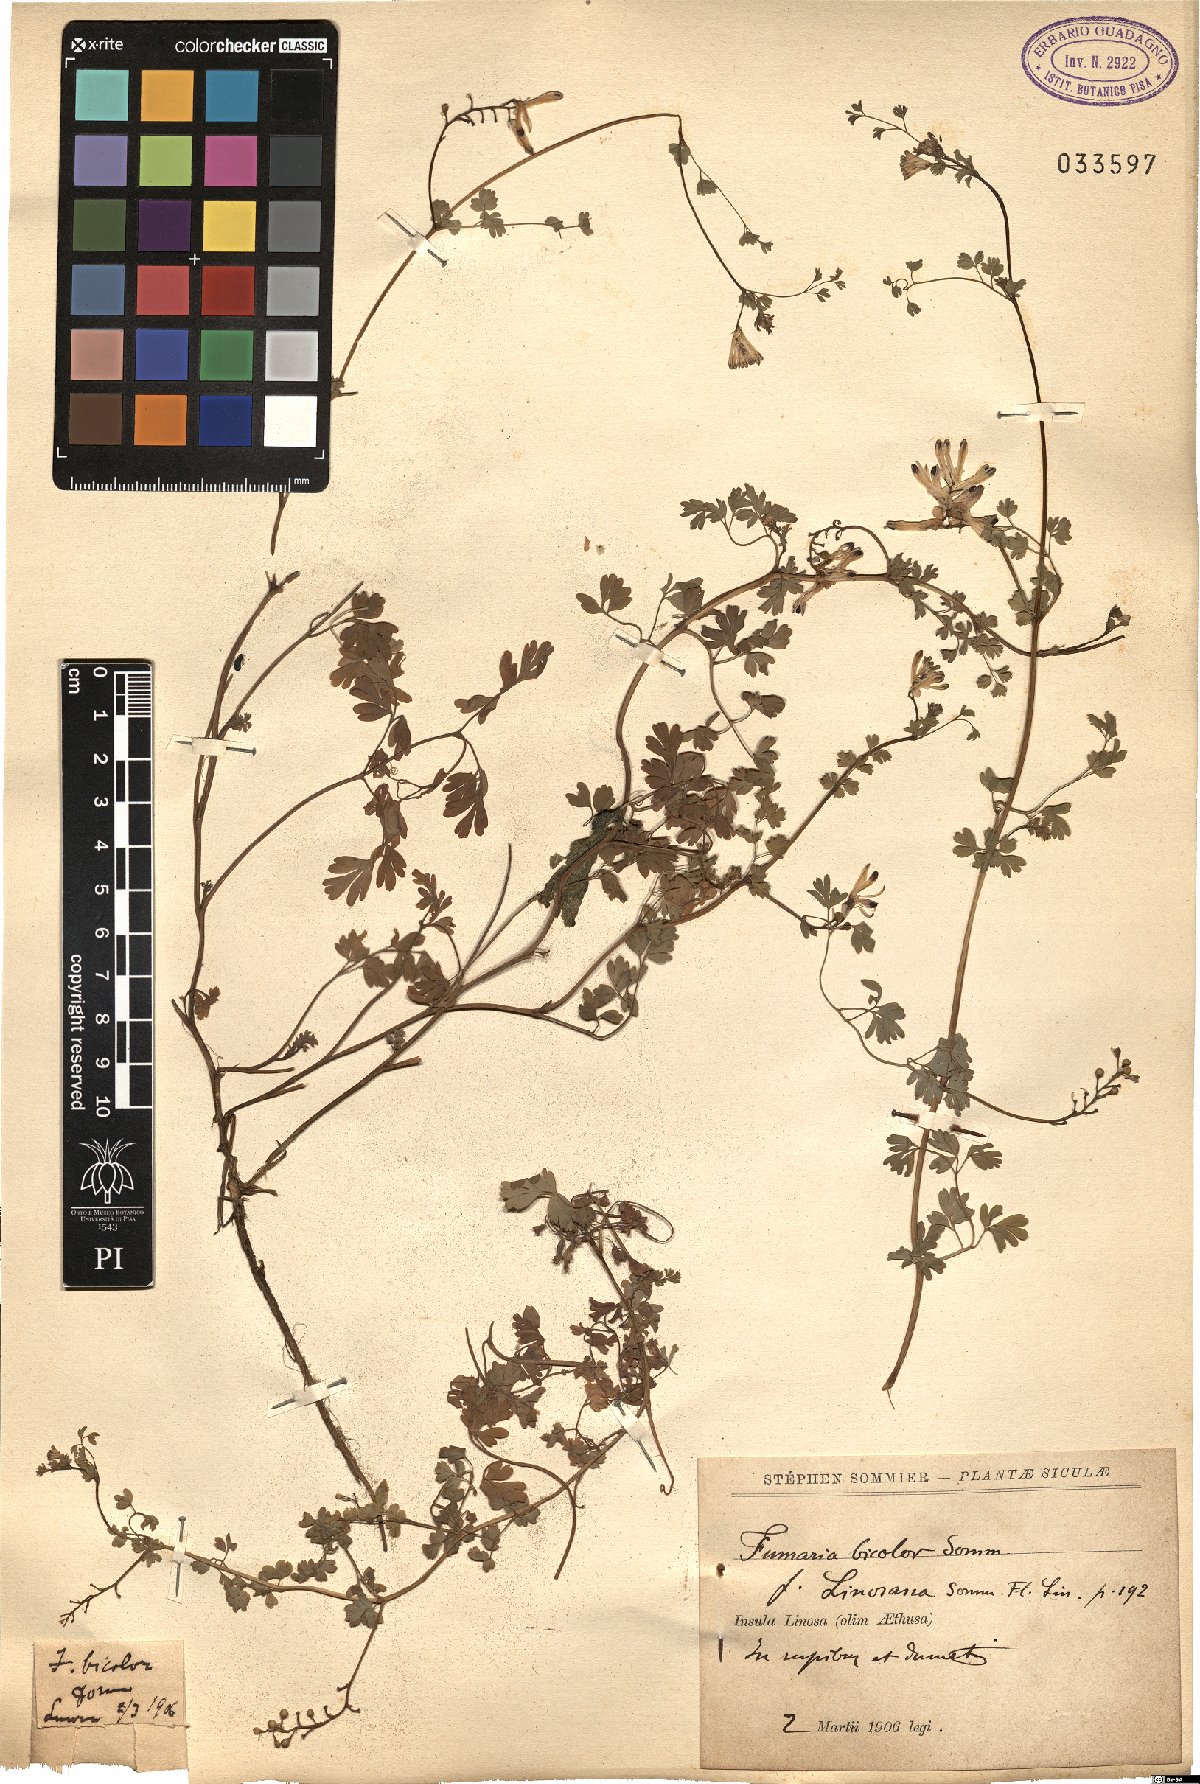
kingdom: Plantae
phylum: Tracheophyta
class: Magnoliopsida
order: Ranunculales
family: Papaveraceae
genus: Fumaria
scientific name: Fumaria bicolor
